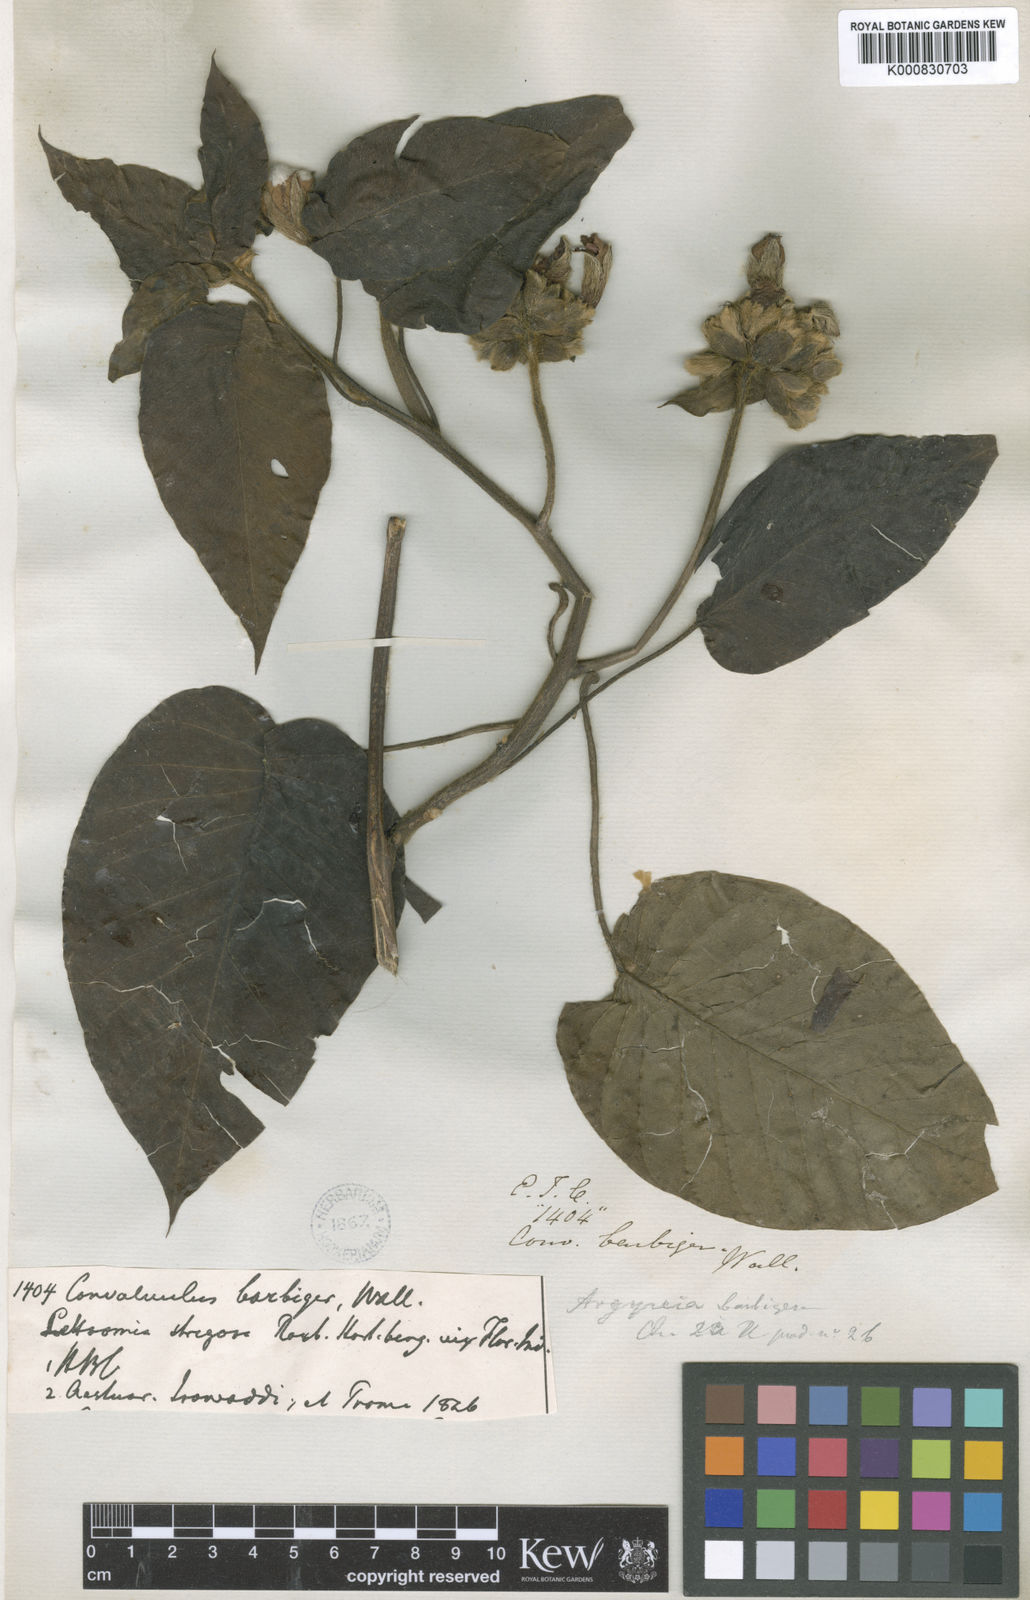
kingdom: Plantae
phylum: Tracheophyta
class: Magnoliopsida
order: Solanales
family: Convolvulaceae
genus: Argyreia
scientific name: Argyreia
